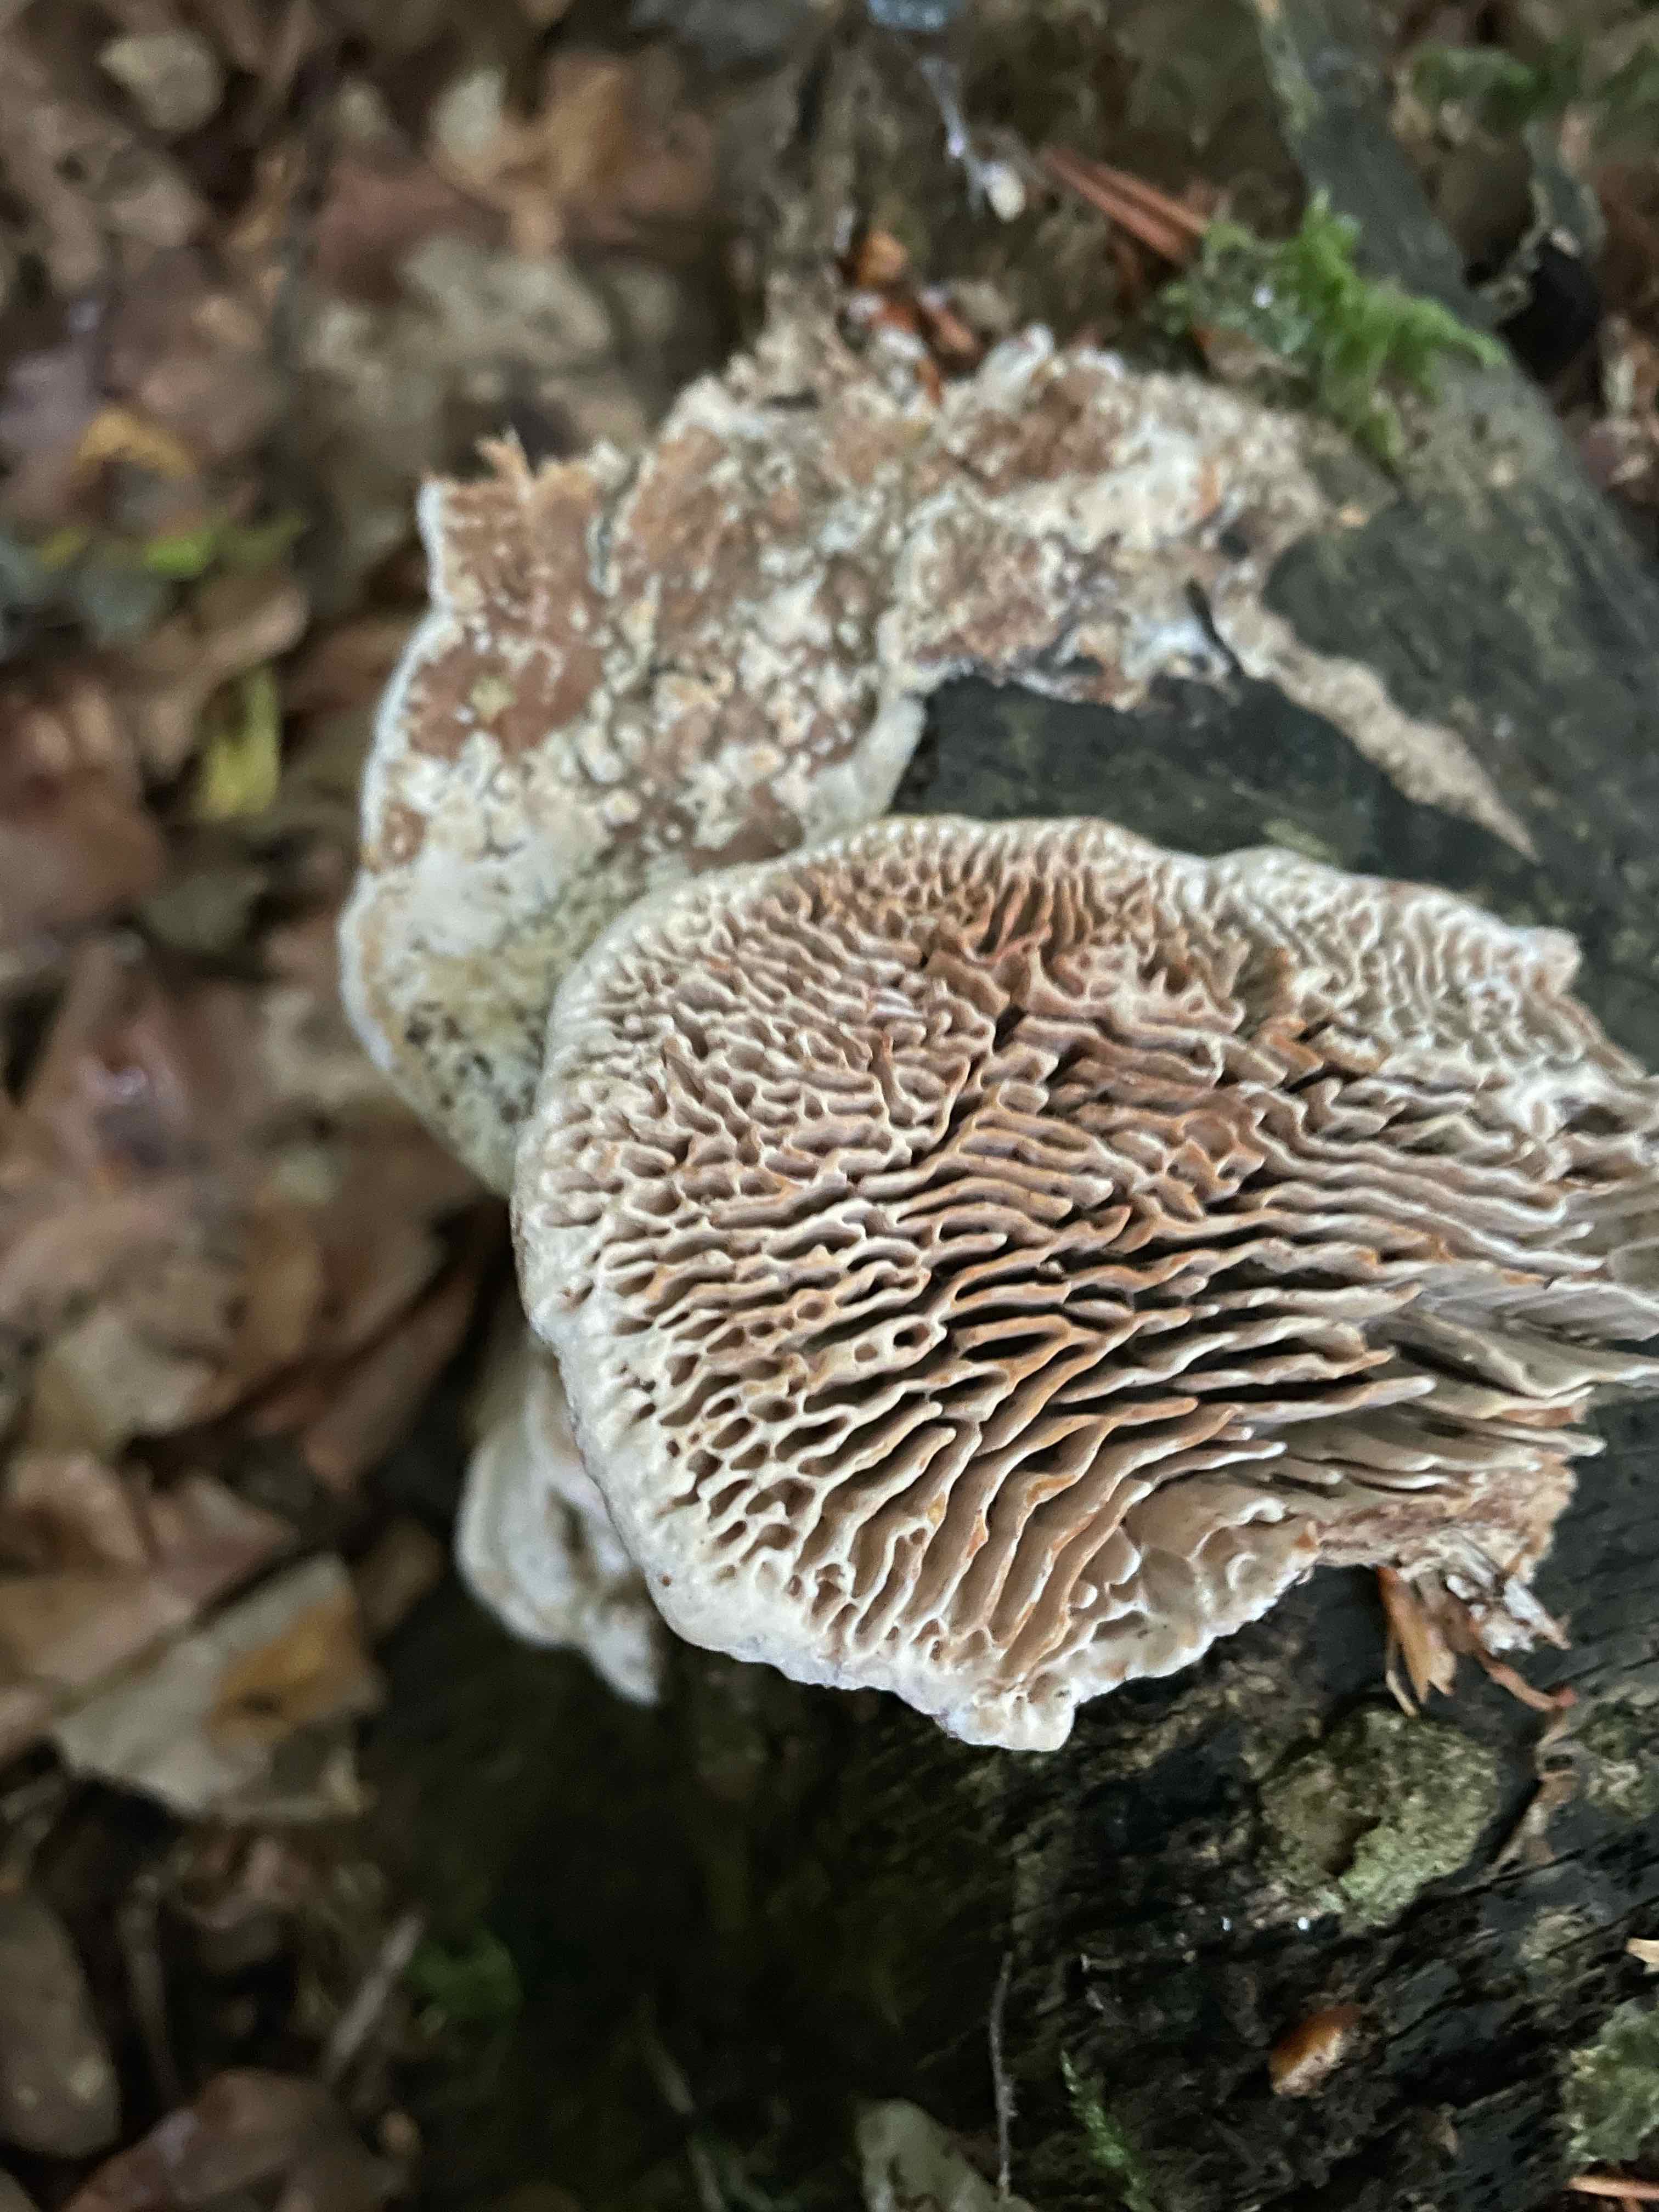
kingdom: Fungi
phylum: Basidiomycota
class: Agaricomycetes
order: Polyporales
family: Fomitopsidaceae
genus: Daedalea
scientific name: Daedalea quercina
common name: ege-labyrintsvamp
